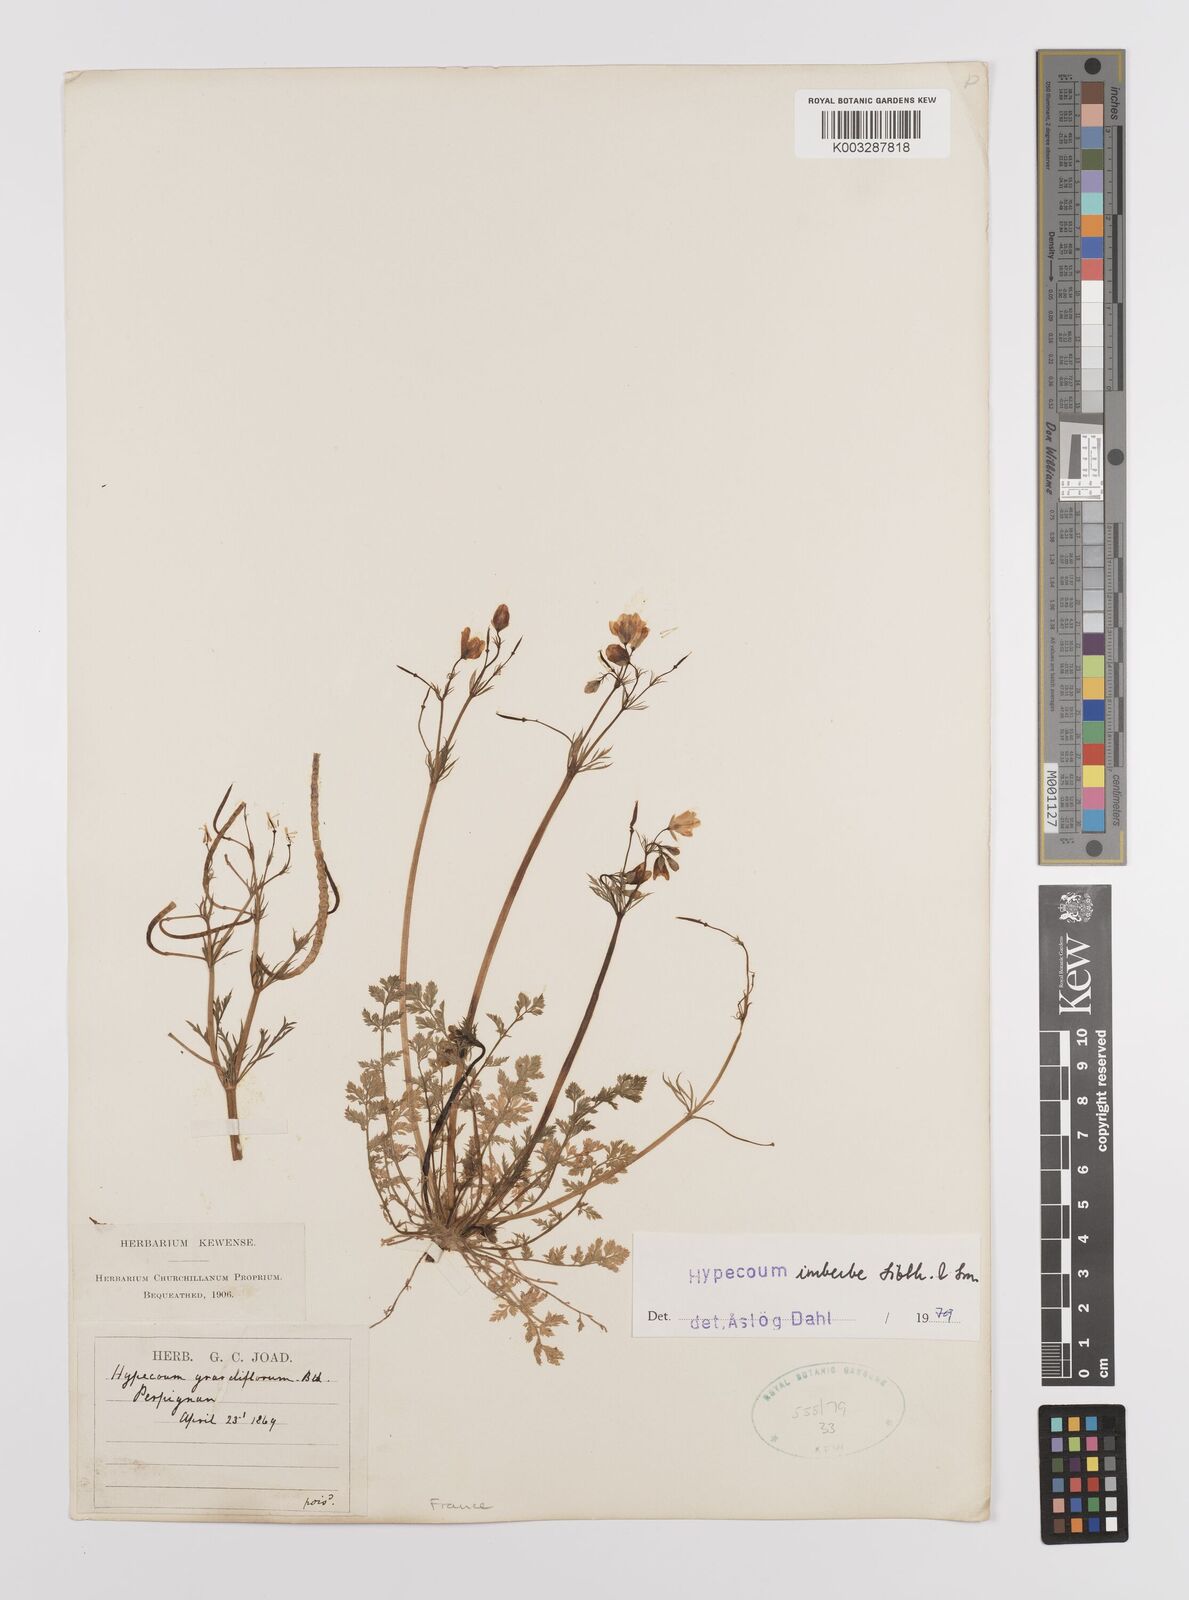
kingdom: Plantae
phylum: Tracheophyta
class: Magnoliopsida
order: Ranunculales
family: Papaveraceae
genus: Hypecoum
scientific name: Hypecoum imberbe
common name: Sicklefruit hypecoum
